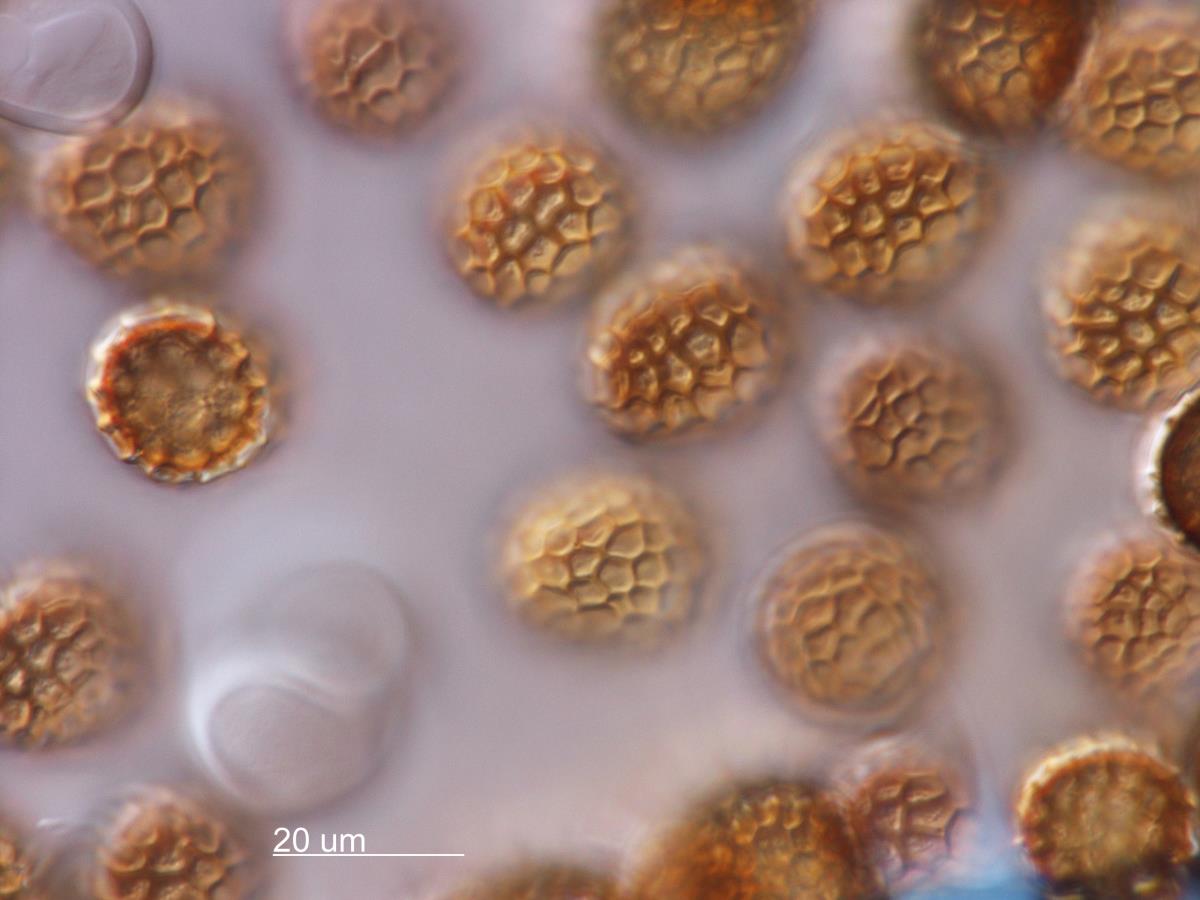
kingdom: Fungi
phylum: Basidiomycota
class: Exobasidiomycetes
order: Tilletiales
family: Tilletiaceae
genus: Tilletia
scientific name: Tilletia anthoxanthi
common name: Sweet vernal smut
